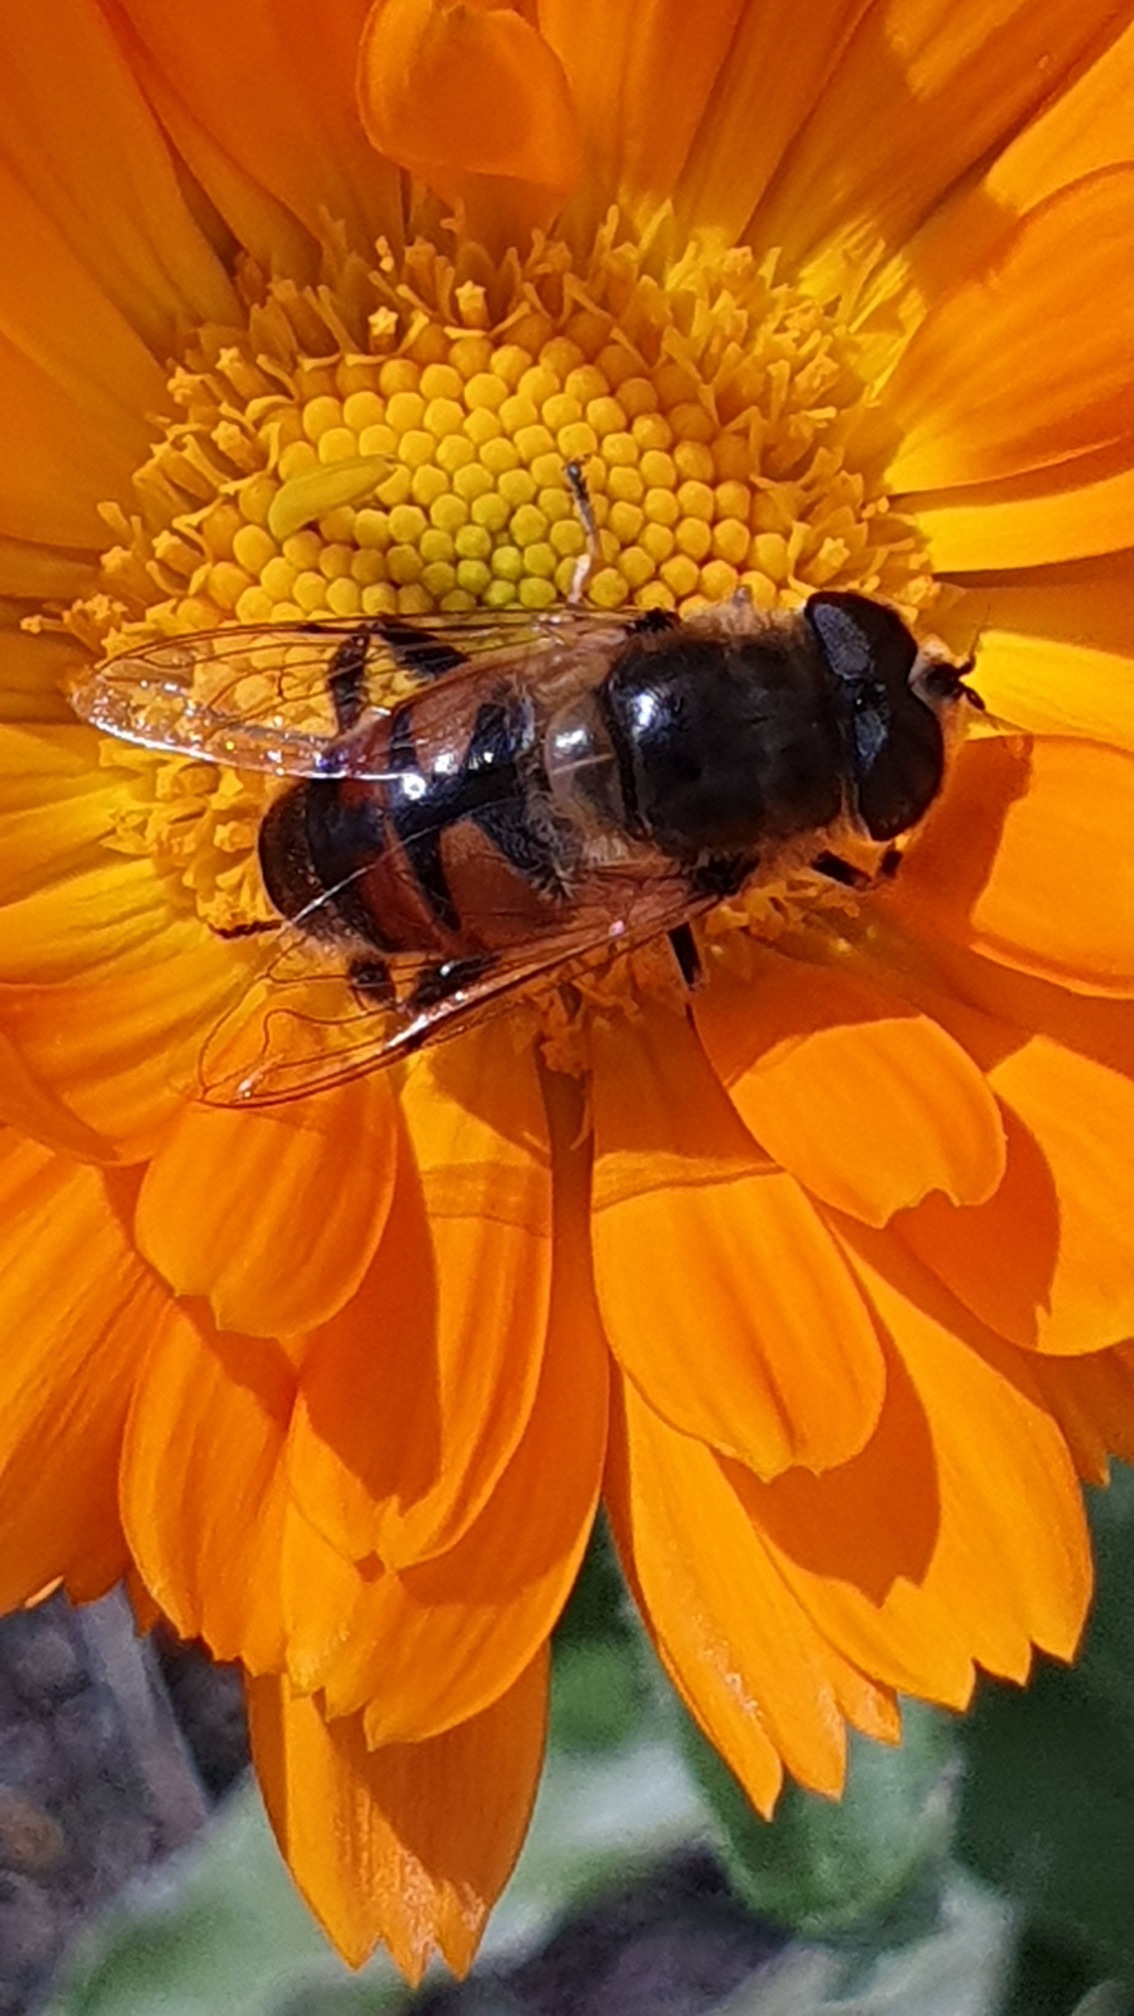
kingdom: Animalia
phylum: Arthropoda
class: Insecta
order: Diptera
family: Syrphidae
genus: Eristalis
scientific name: Eristalis tenax
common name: Droneflue
